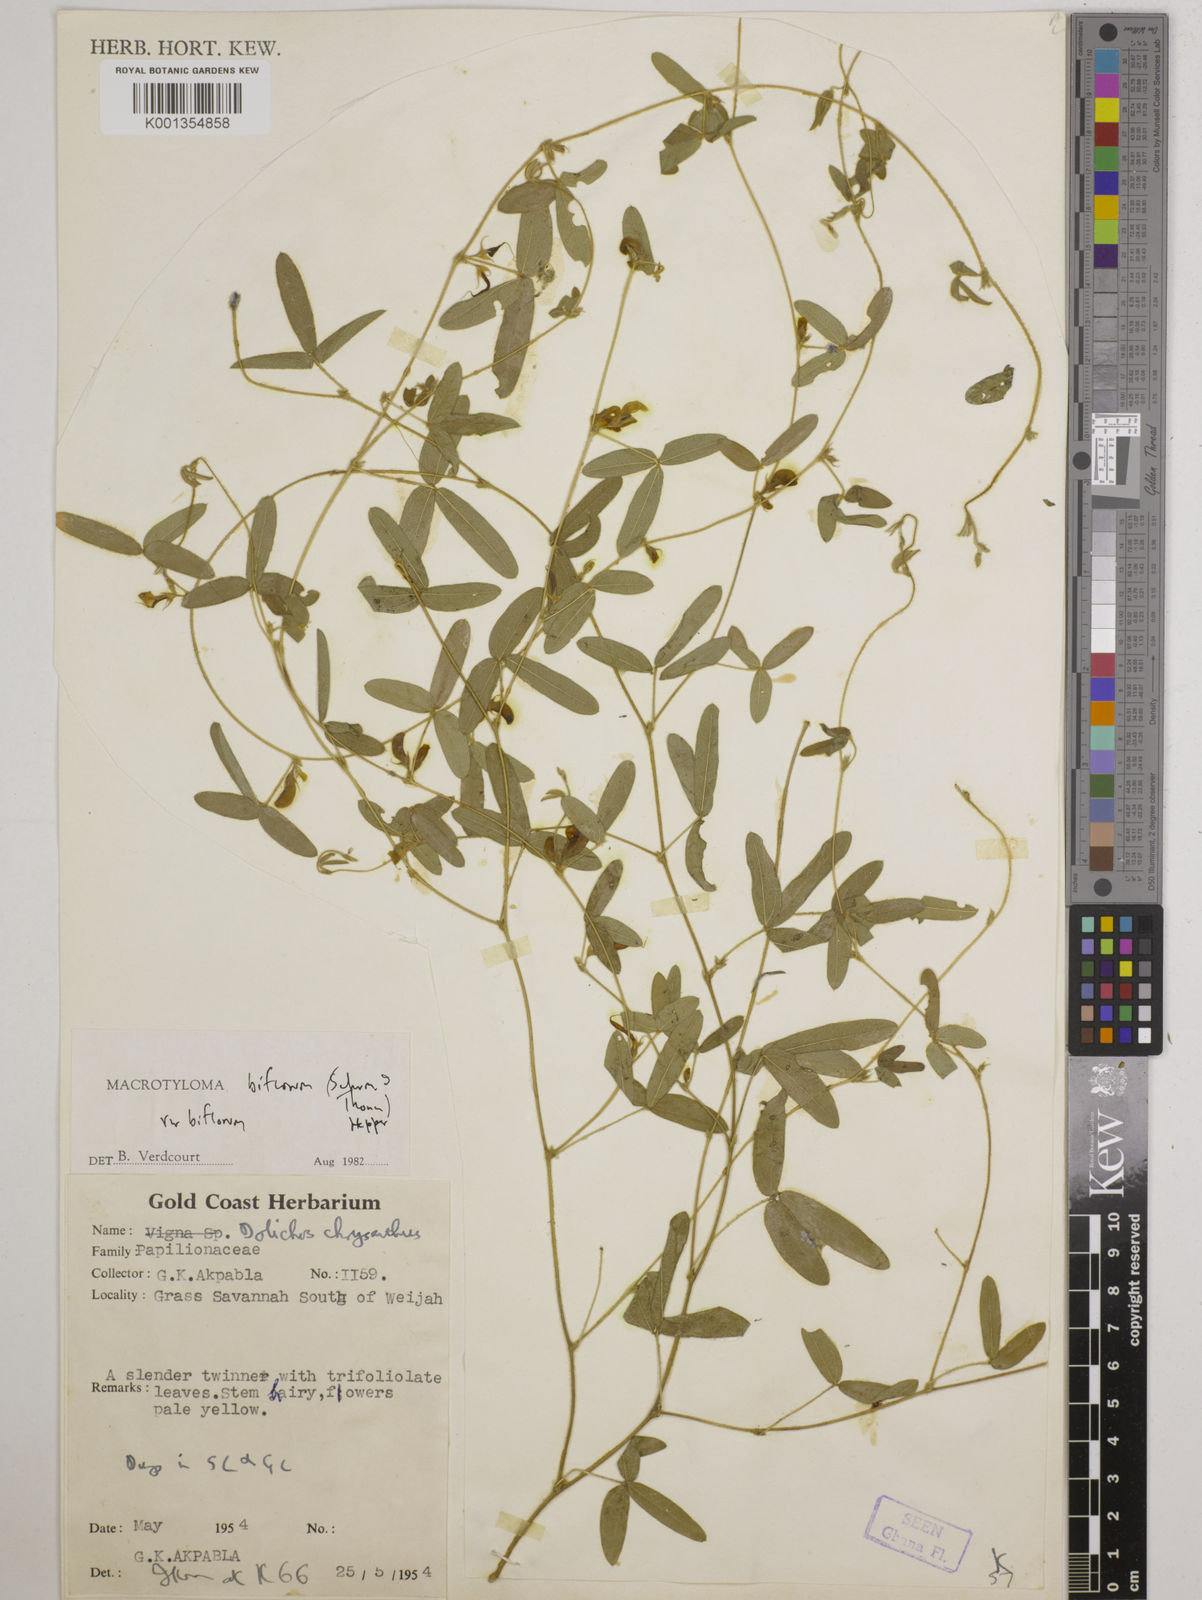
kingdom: Plantae
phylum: Tracheophyta
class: Magnoliopsida
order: Fabales
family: Fabaceae
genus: Macrotyloma
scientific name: Macrotyloma biflorum
